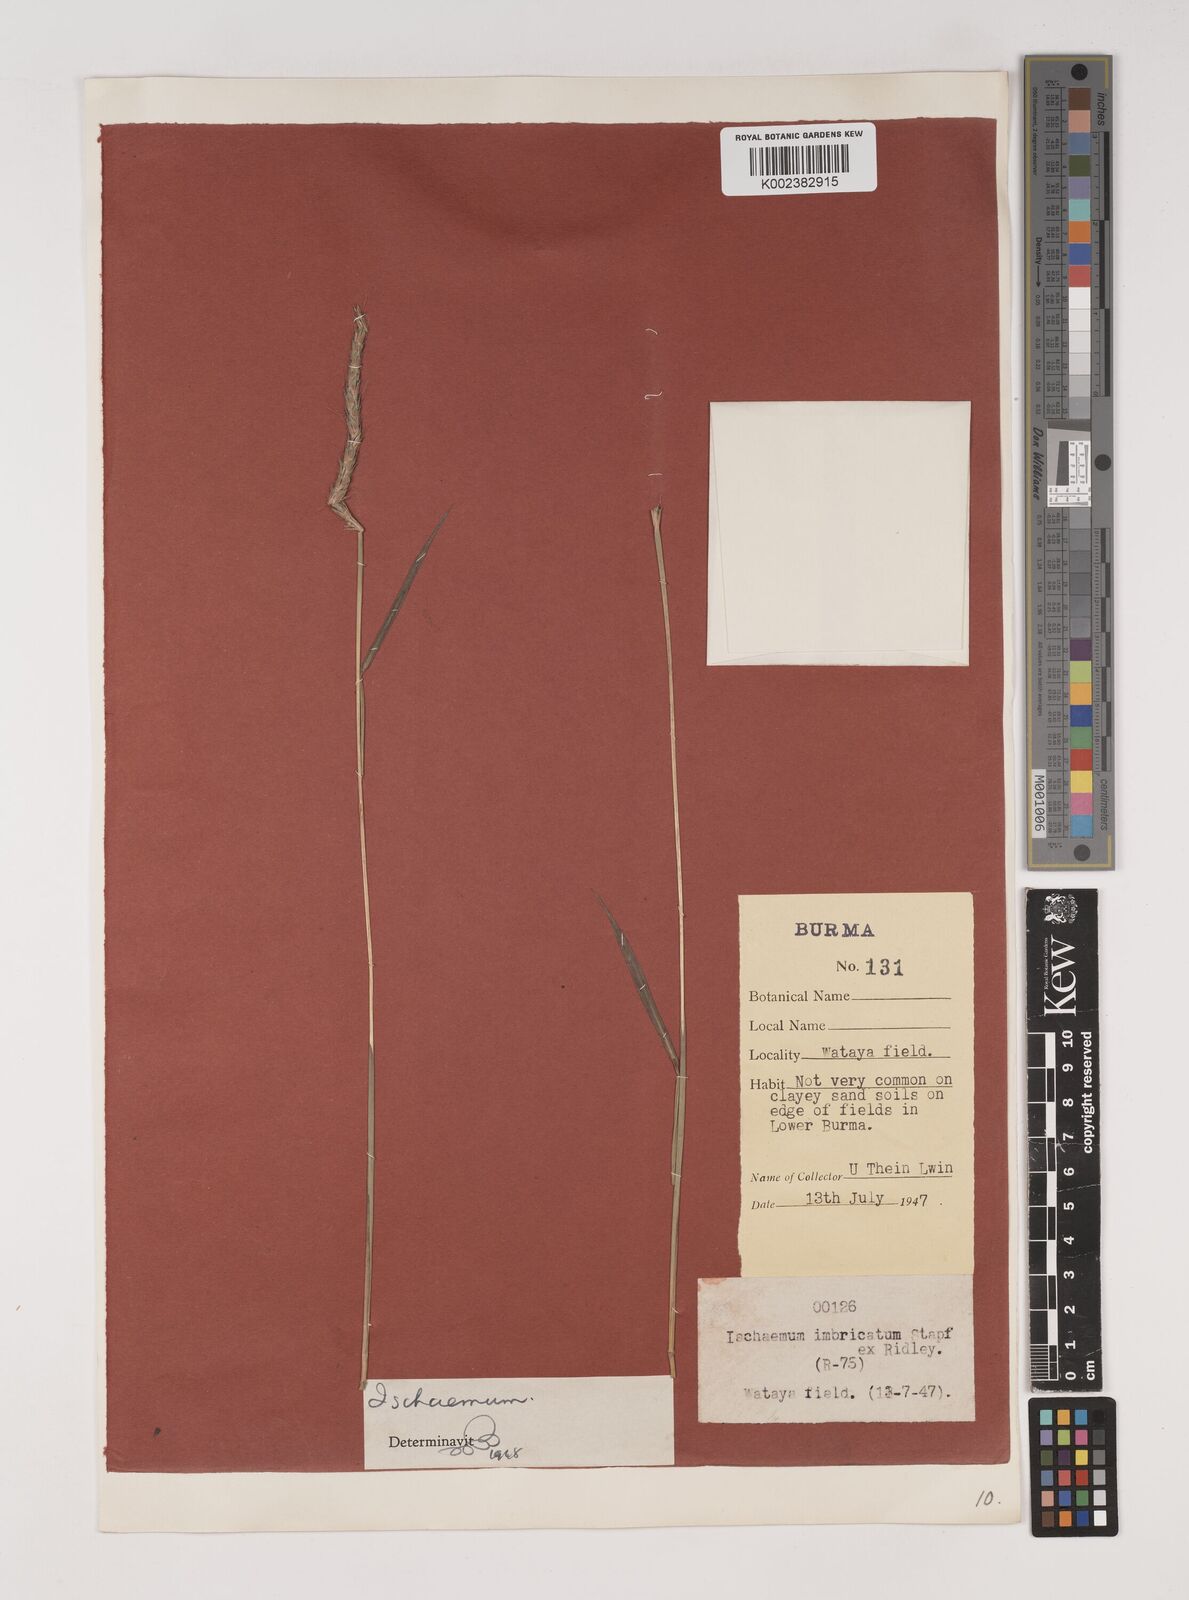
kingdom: Plantae
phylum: Tracheophyta
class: Liliopsida
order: Poales
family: Poaceae
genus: Ischaemum
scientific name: Ischaemum
